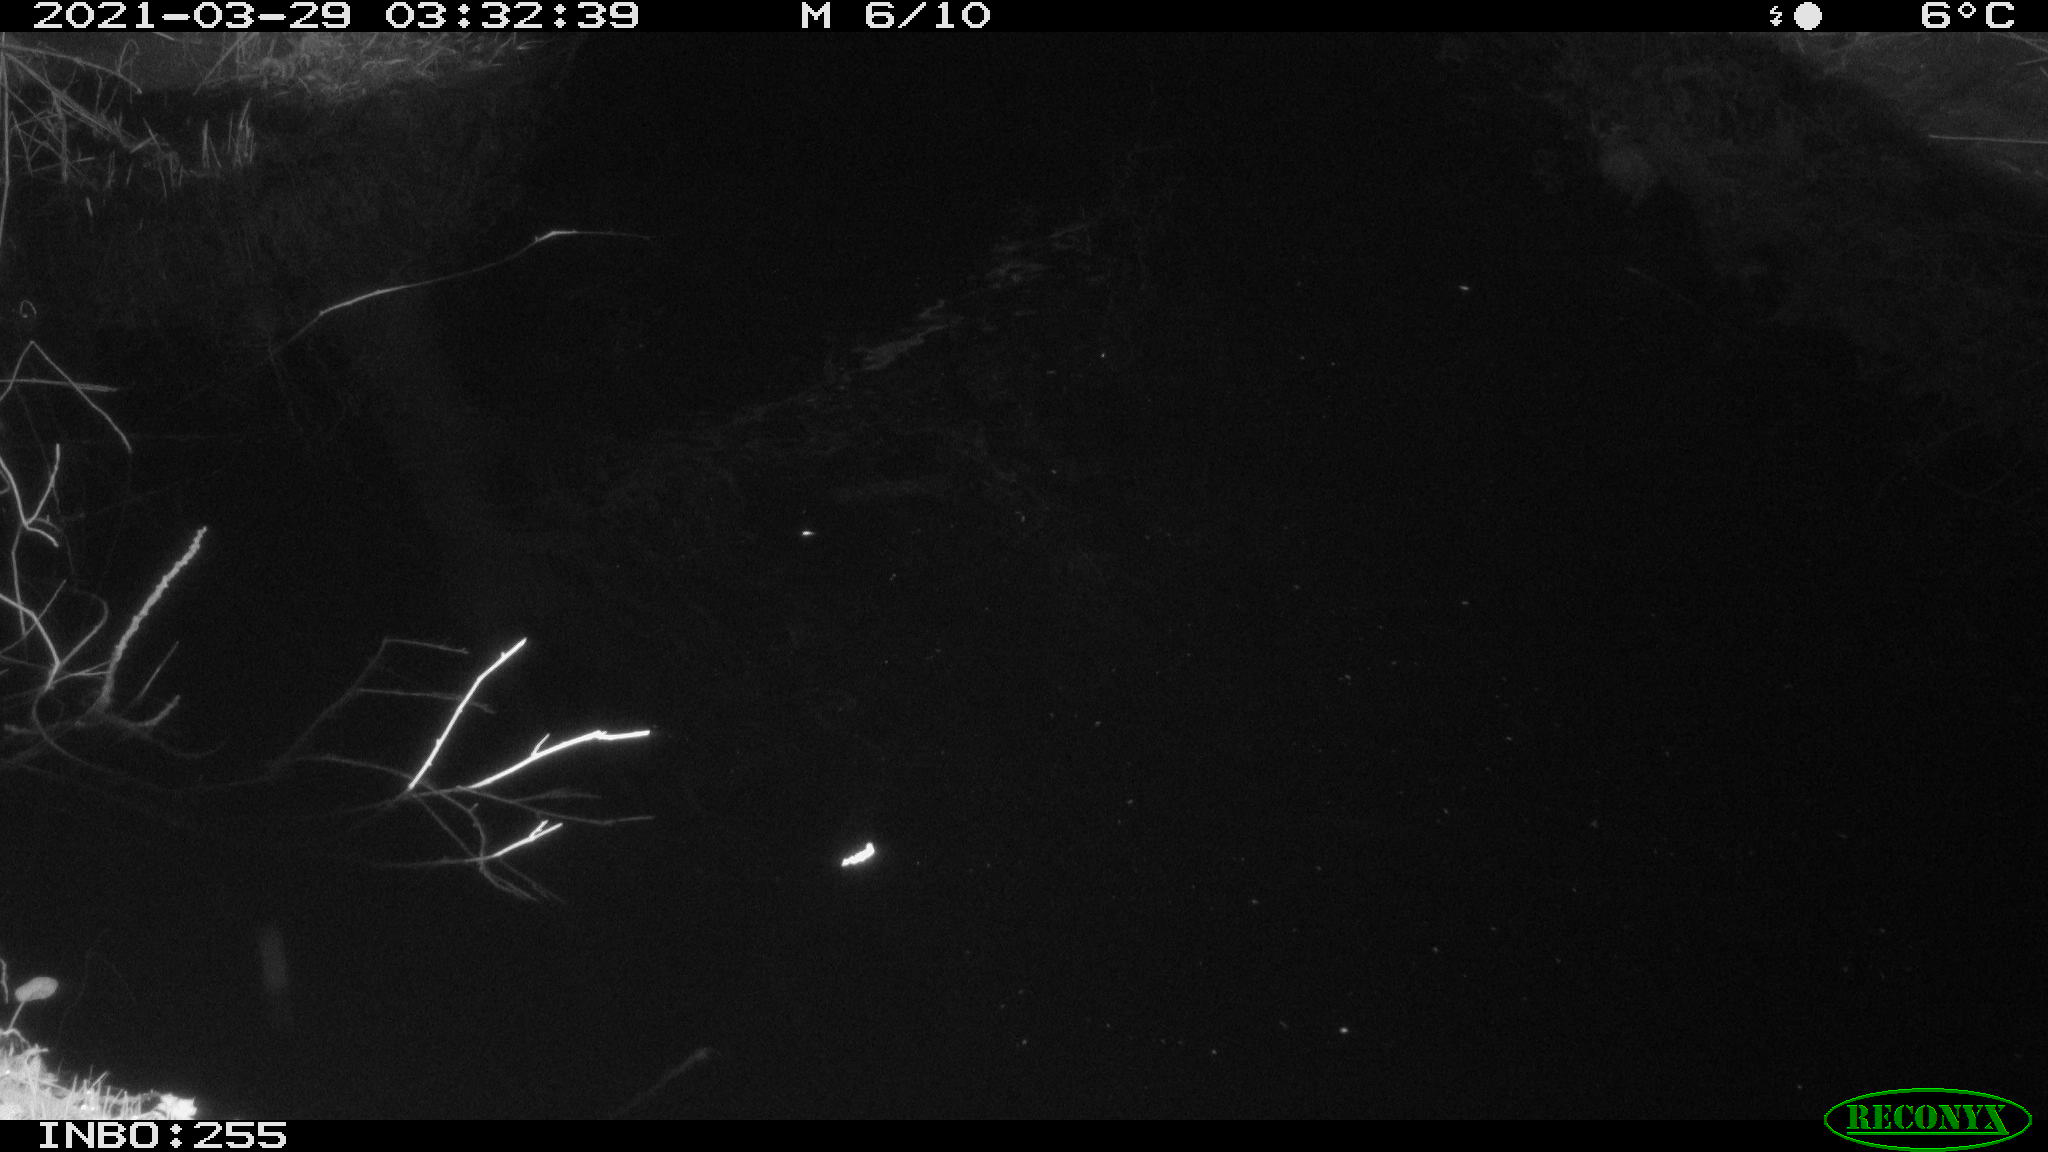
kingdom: Animalia
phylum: Chordata
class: Aves
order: Anseriformes
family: Anatidae
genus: Anas
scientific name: Anas platyrhynchos
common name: Mallard
